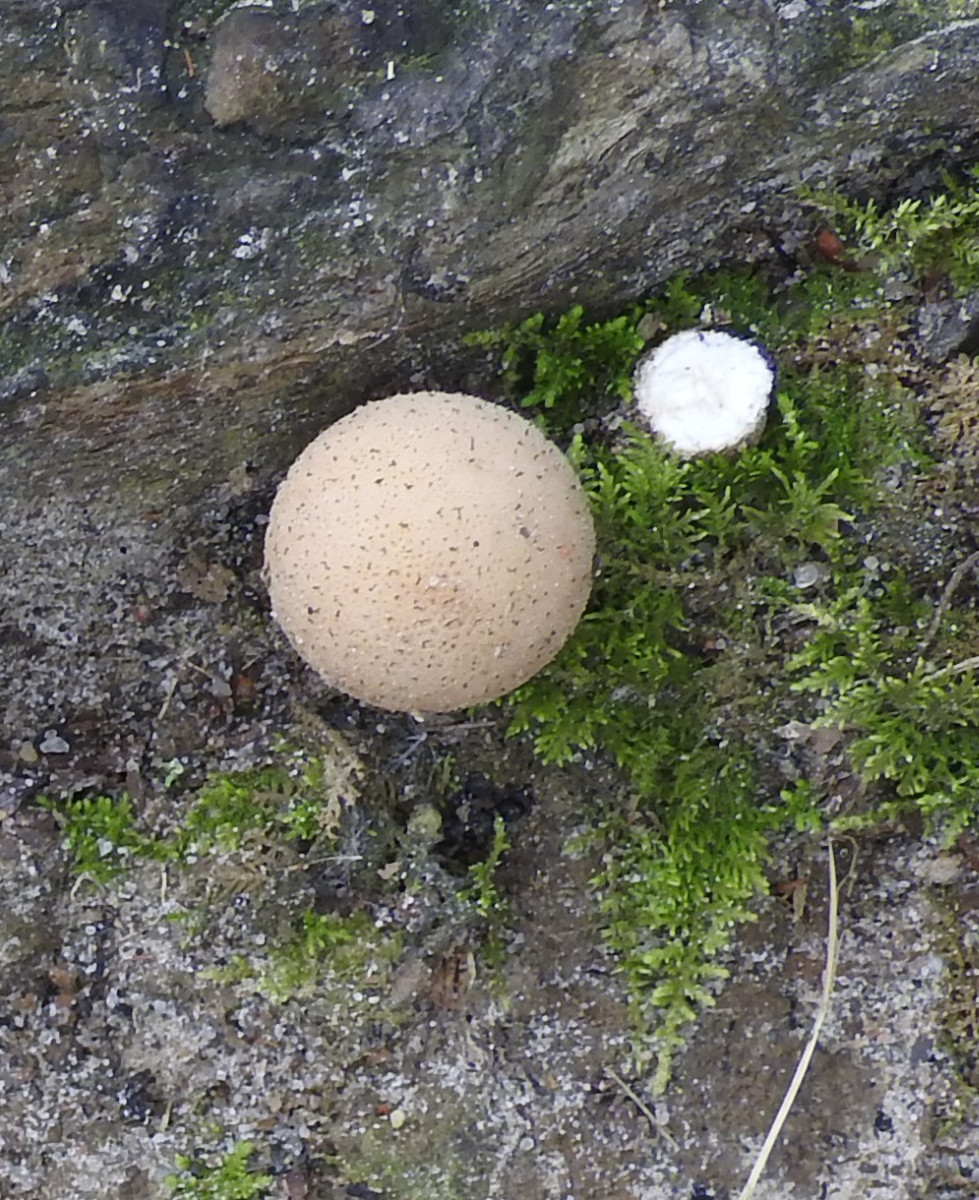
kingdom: Fungi
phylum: Basidiomycota
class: Agaricomycetes
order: Agaricales
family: Lycoperdaceae
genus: Apioperdon
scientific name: Apioperdon pyriforme
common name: pære-støvbold
